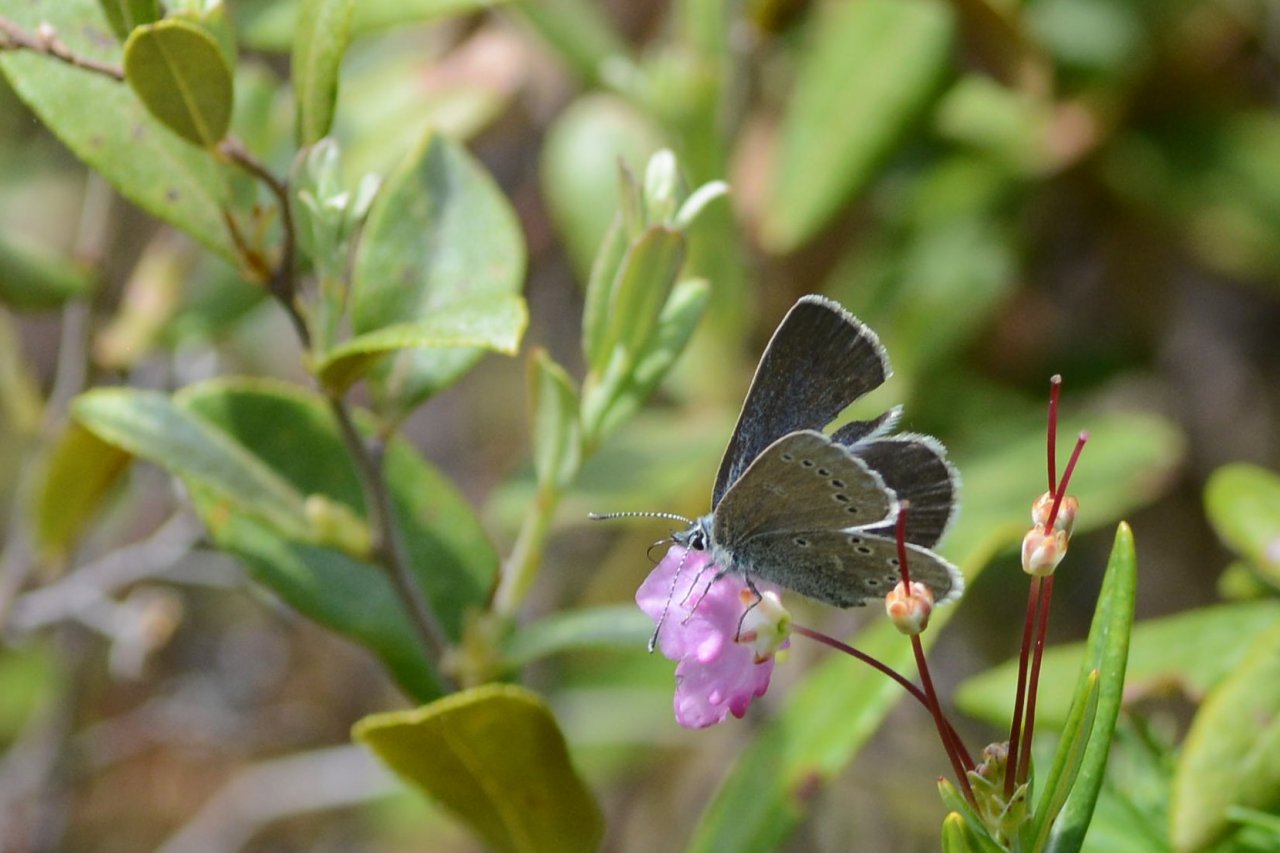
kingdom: Animalia
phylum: Arthropoda
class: Insecta
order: Lepidoptera
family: Lycaenidae
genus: Glaucopsyche
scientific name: Glaucopsyche lygdamus
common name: Silvery Blue
